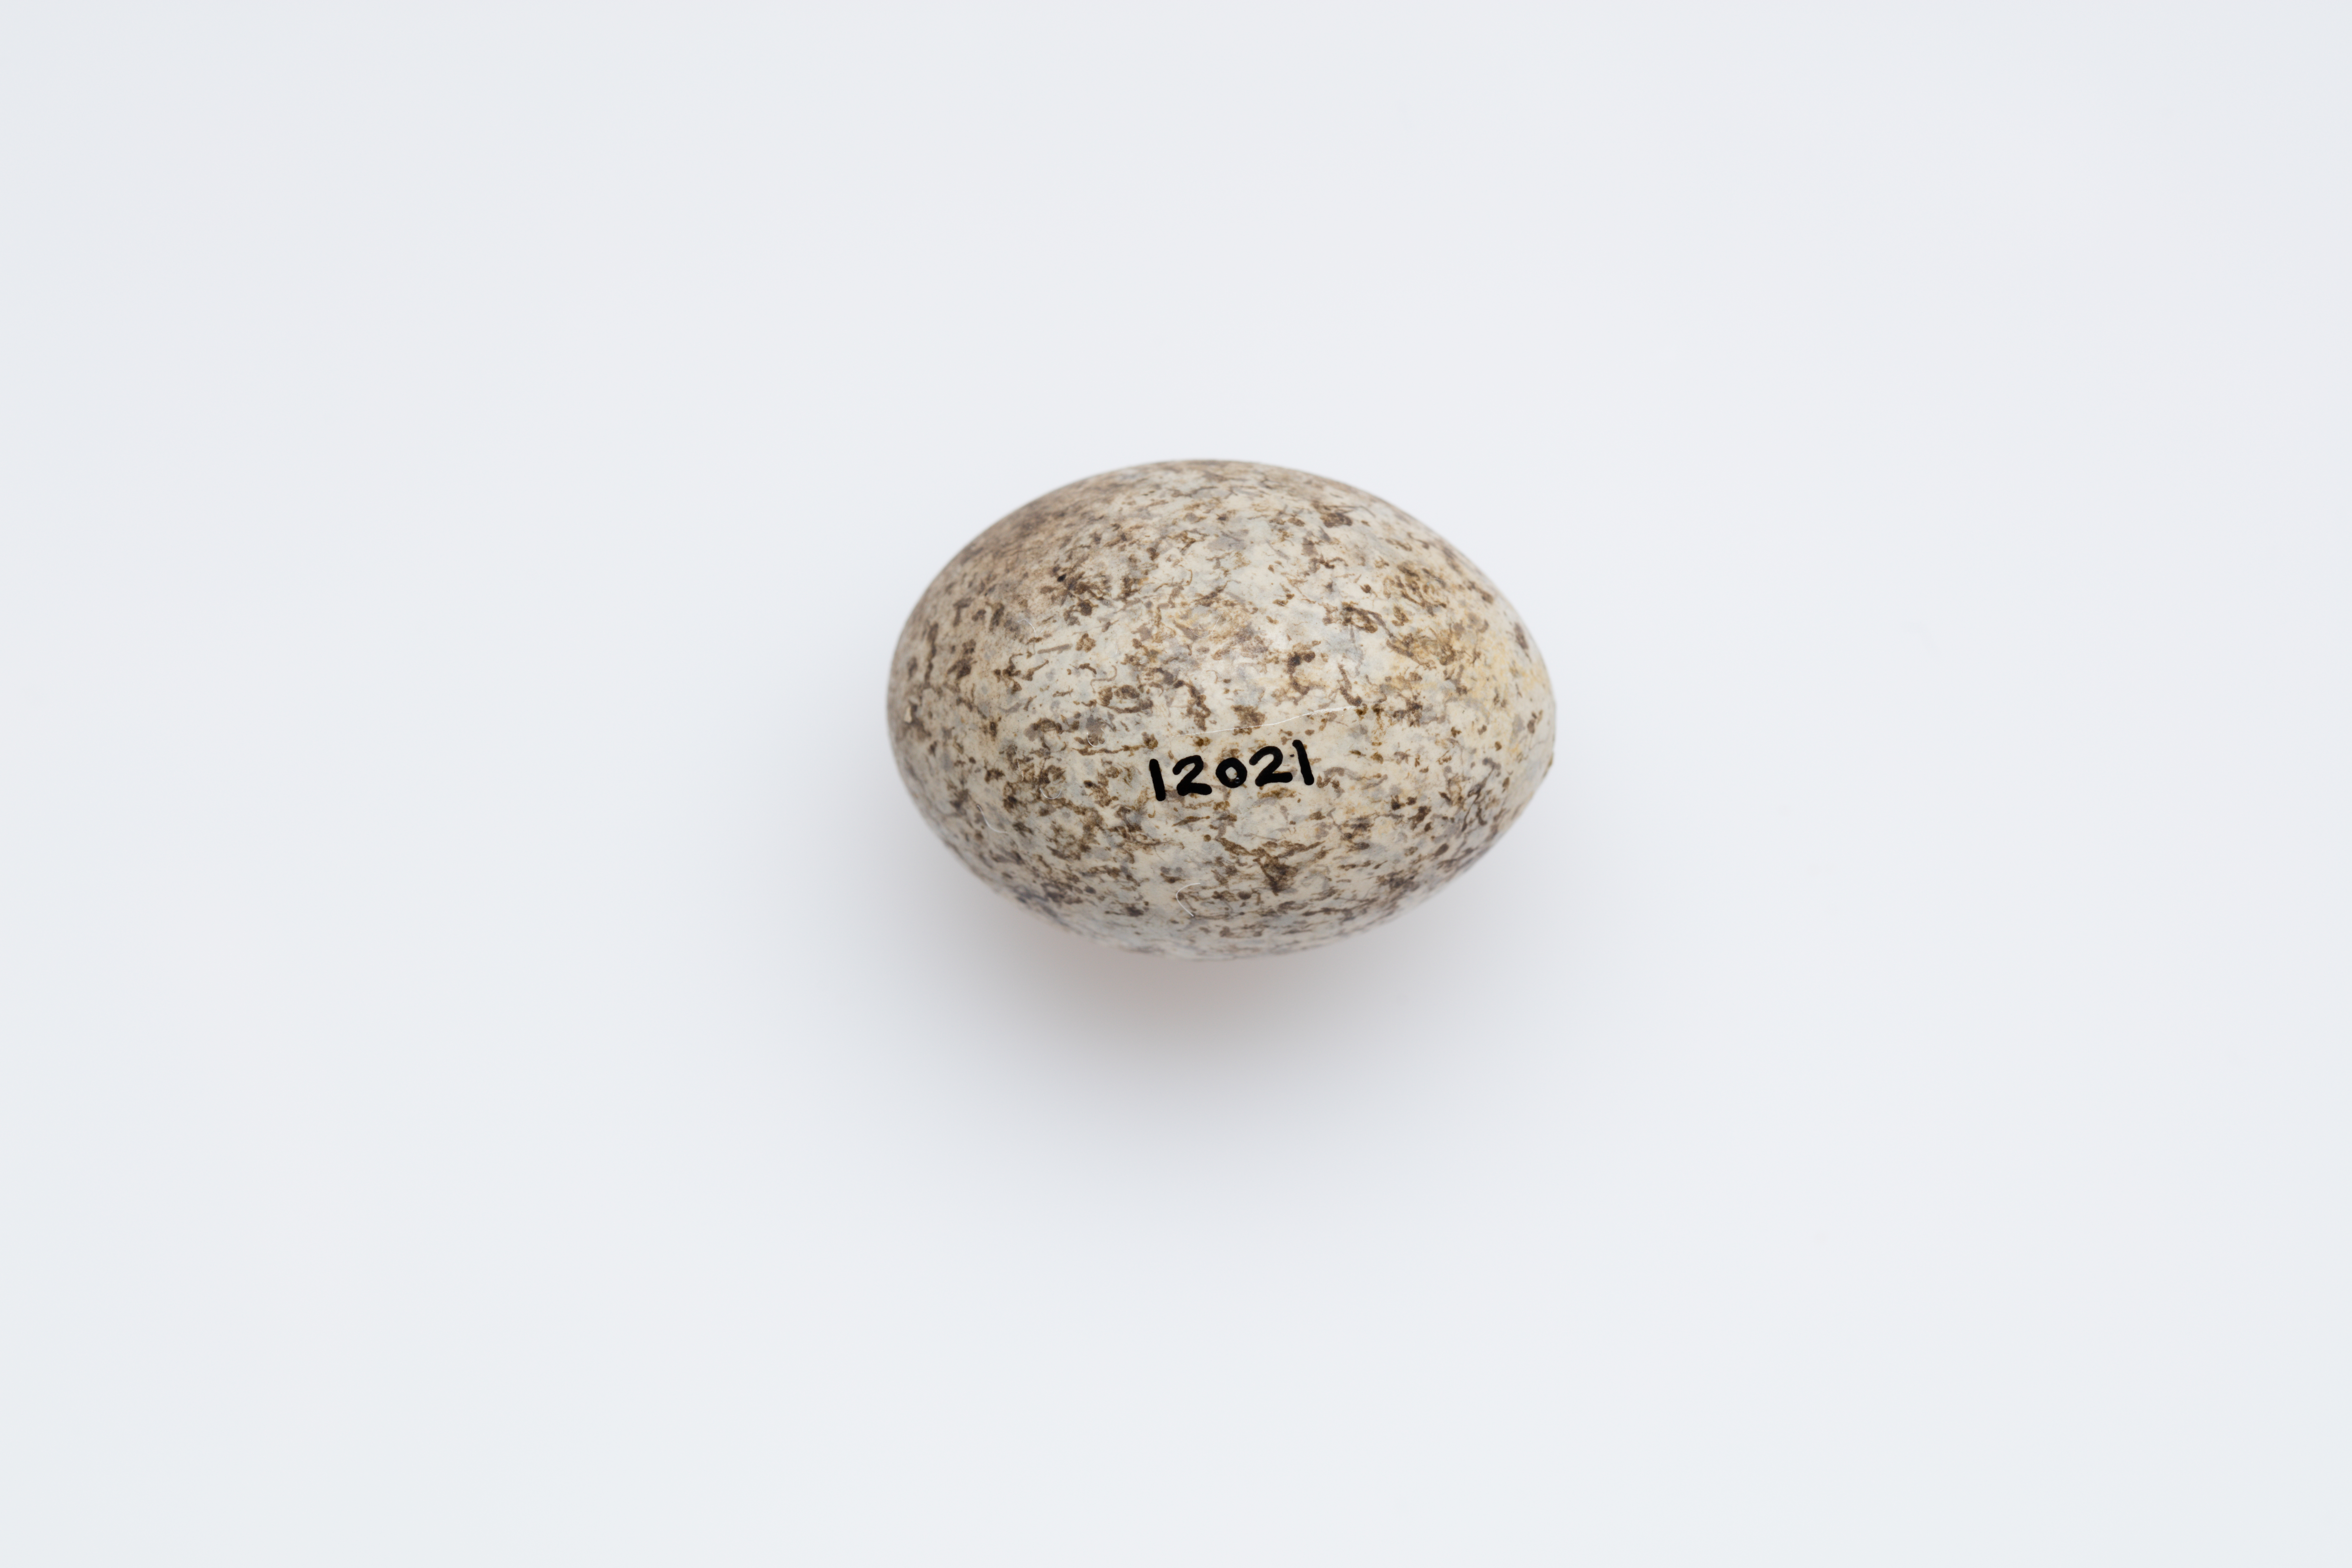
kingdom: Animalia
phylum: Chordata
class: Aves
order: Passeriformes
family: Psophodidae
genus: Cinclosoma
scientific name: Cinclosoma castanotum
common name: Chestnut quail-thrush
